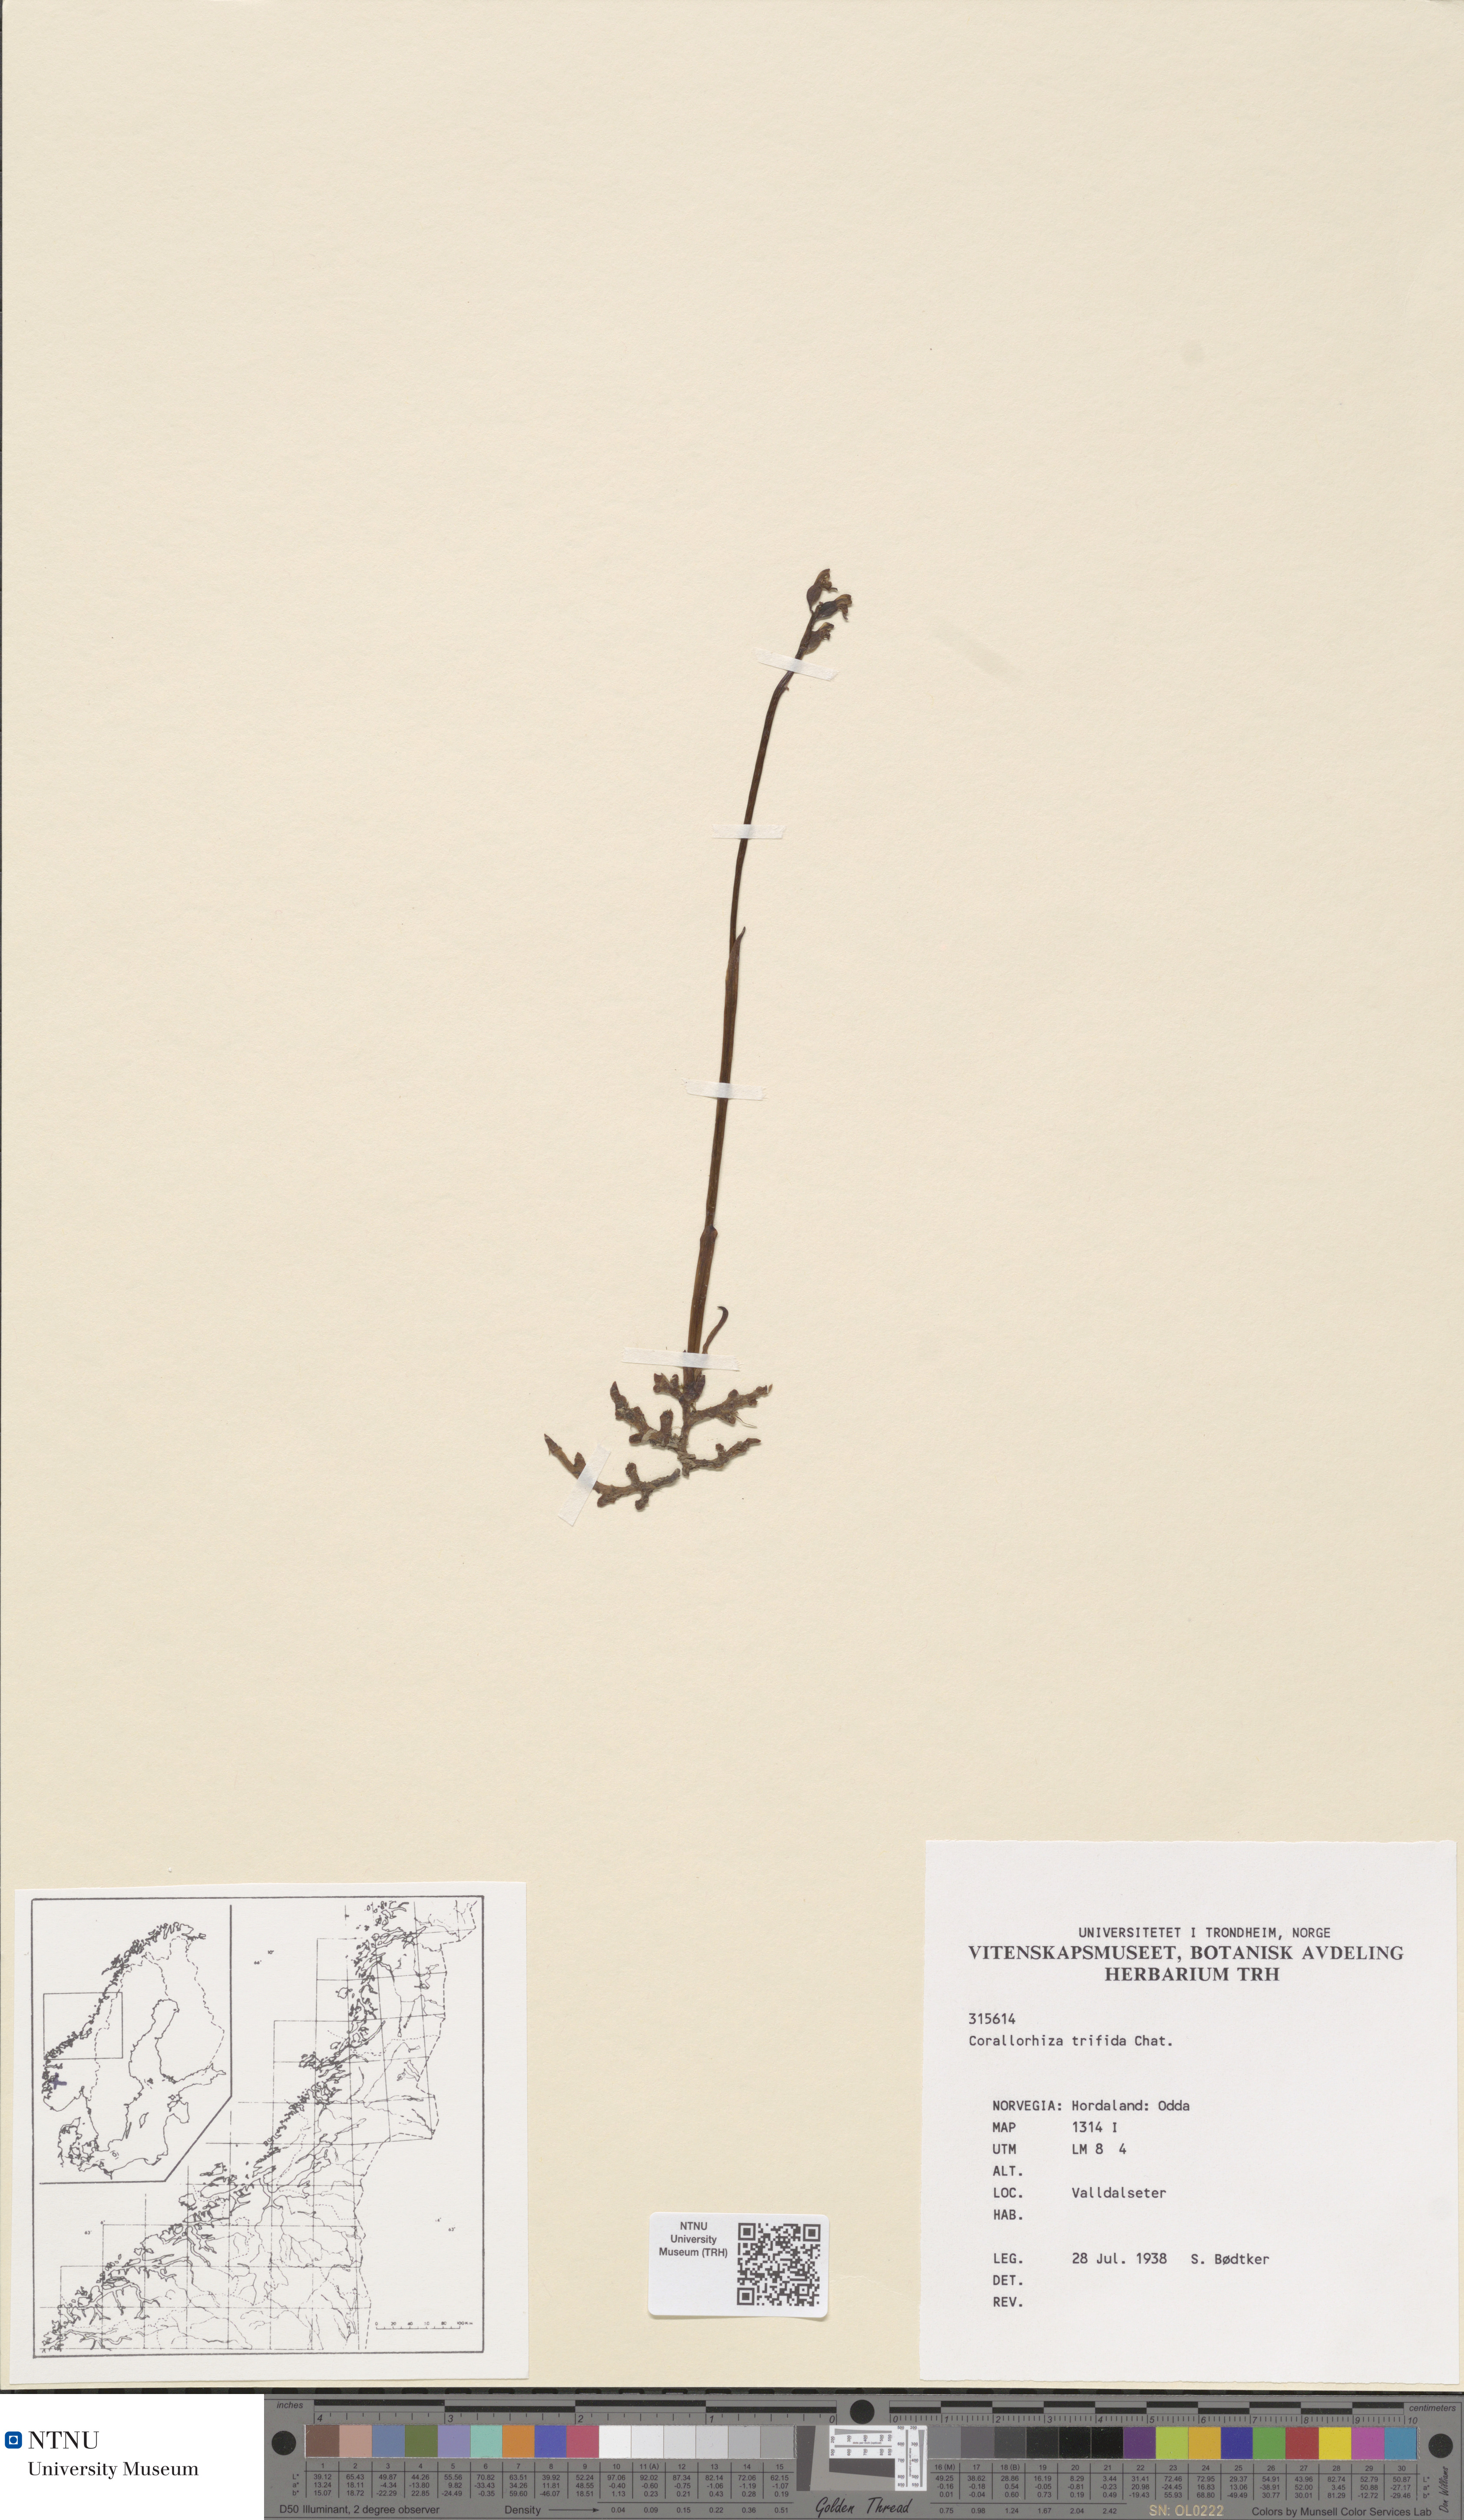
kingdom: Plantae
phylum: Tracheophyta
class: Liliopsida
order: Asparagales
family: Orchidaceae
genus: Corallorhiza
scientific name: Corallorhiza trifida
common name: Yellow coralroot
